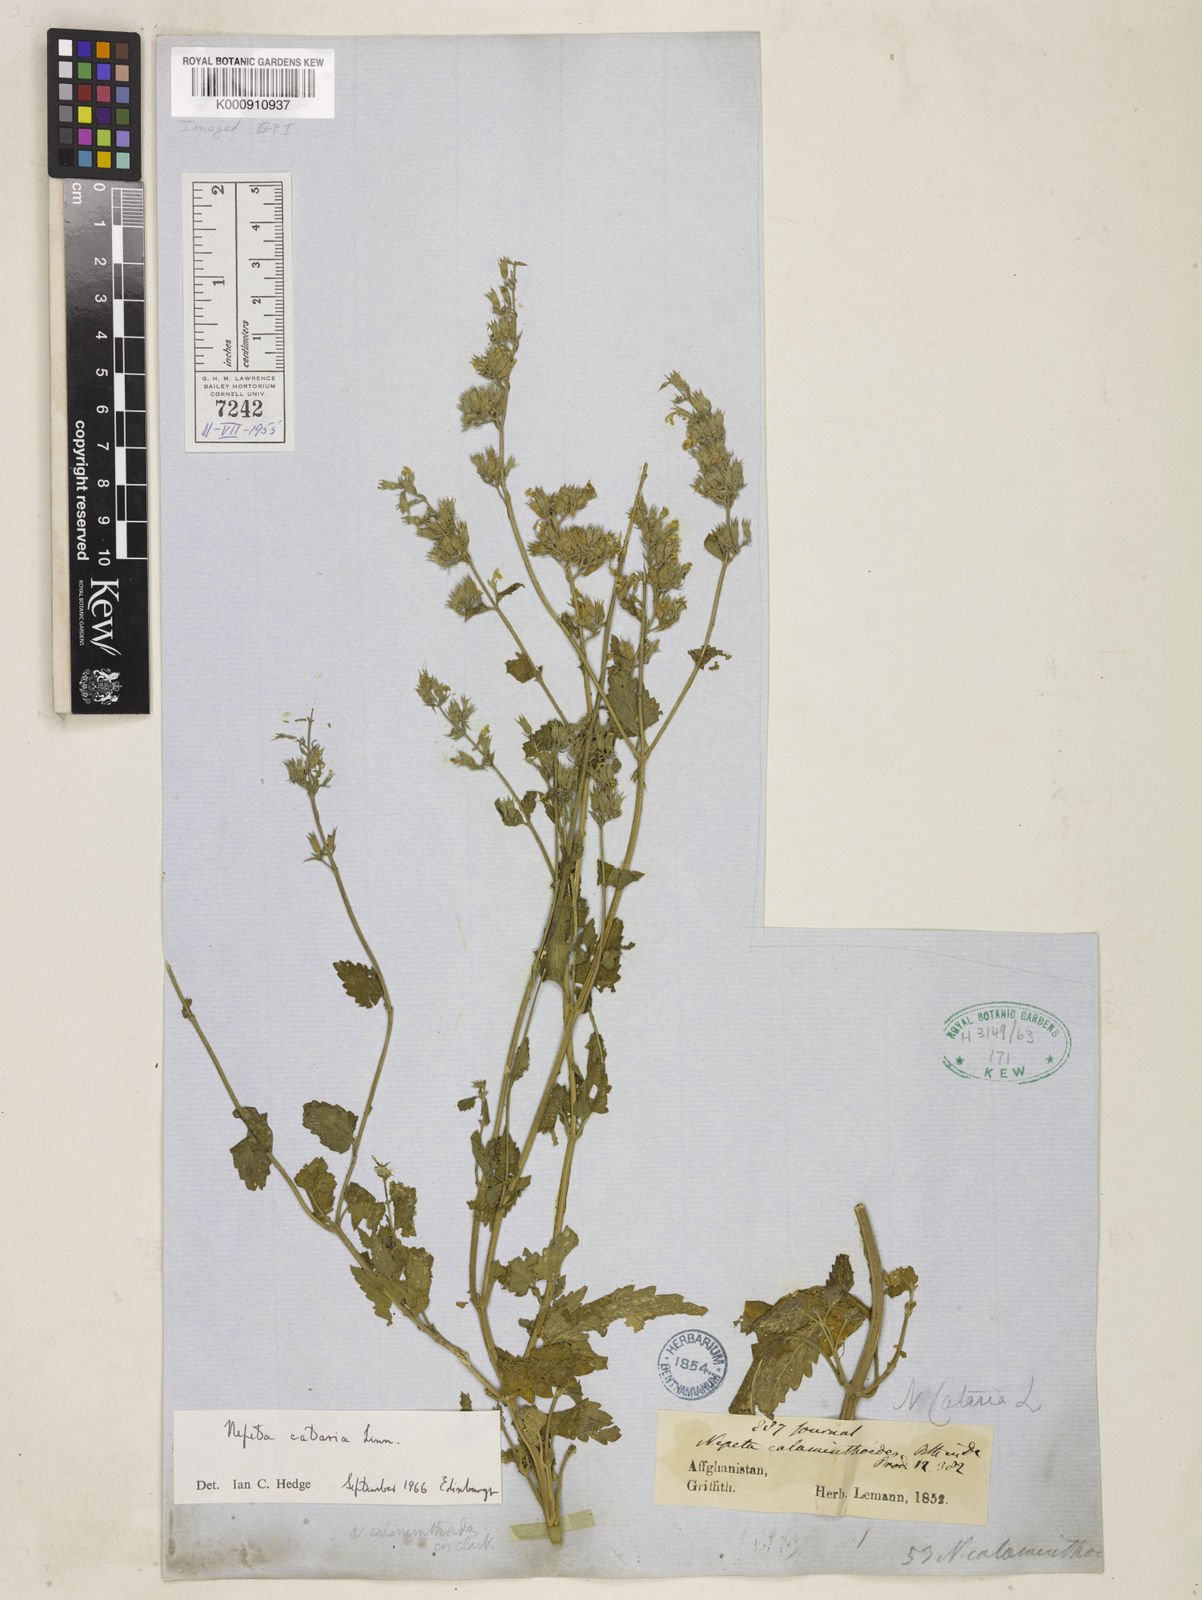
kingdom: Plantae
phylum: Tracheophyta
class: Magnoliopsida
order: Lamiales
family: Lamiaceae
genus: Nepeta
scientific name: Nepeta cataria
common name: Catnip
